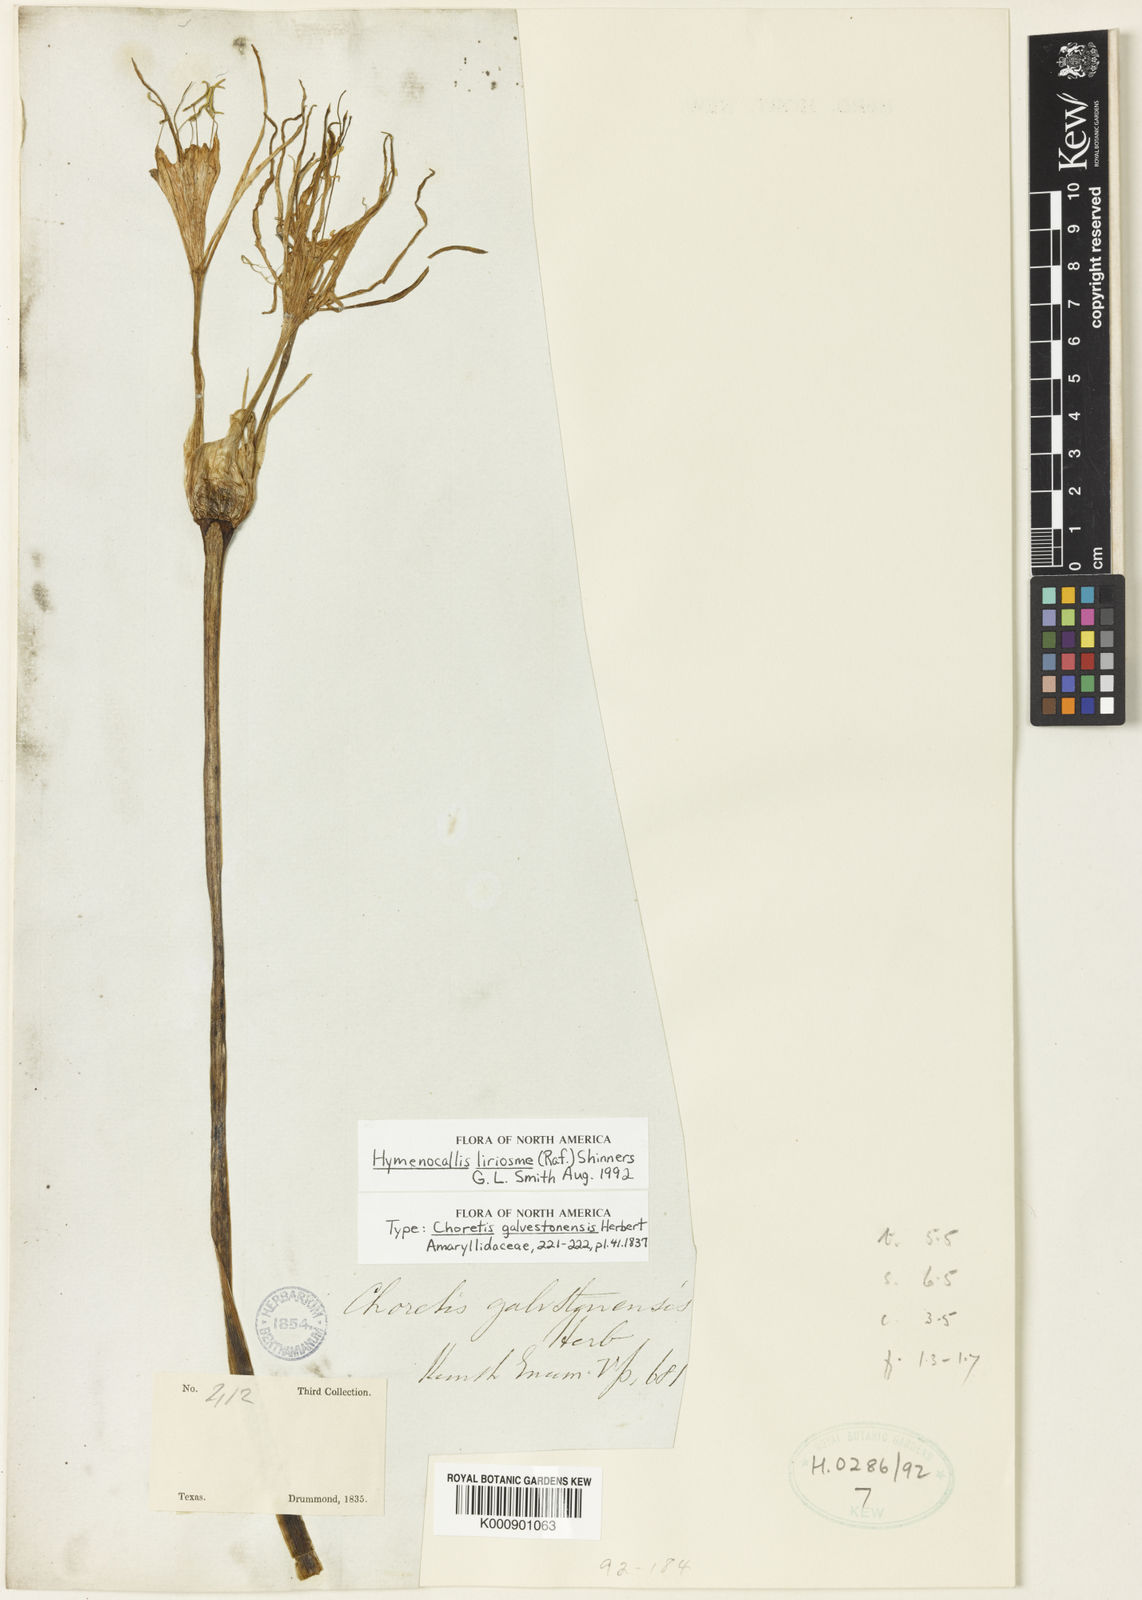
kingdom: Plantae
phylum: Tracheophyta
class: Liliopsida
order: Asparagales
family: Amaryllidaceae
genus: Hymenocallis
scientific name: Hymenocallis liriosme
